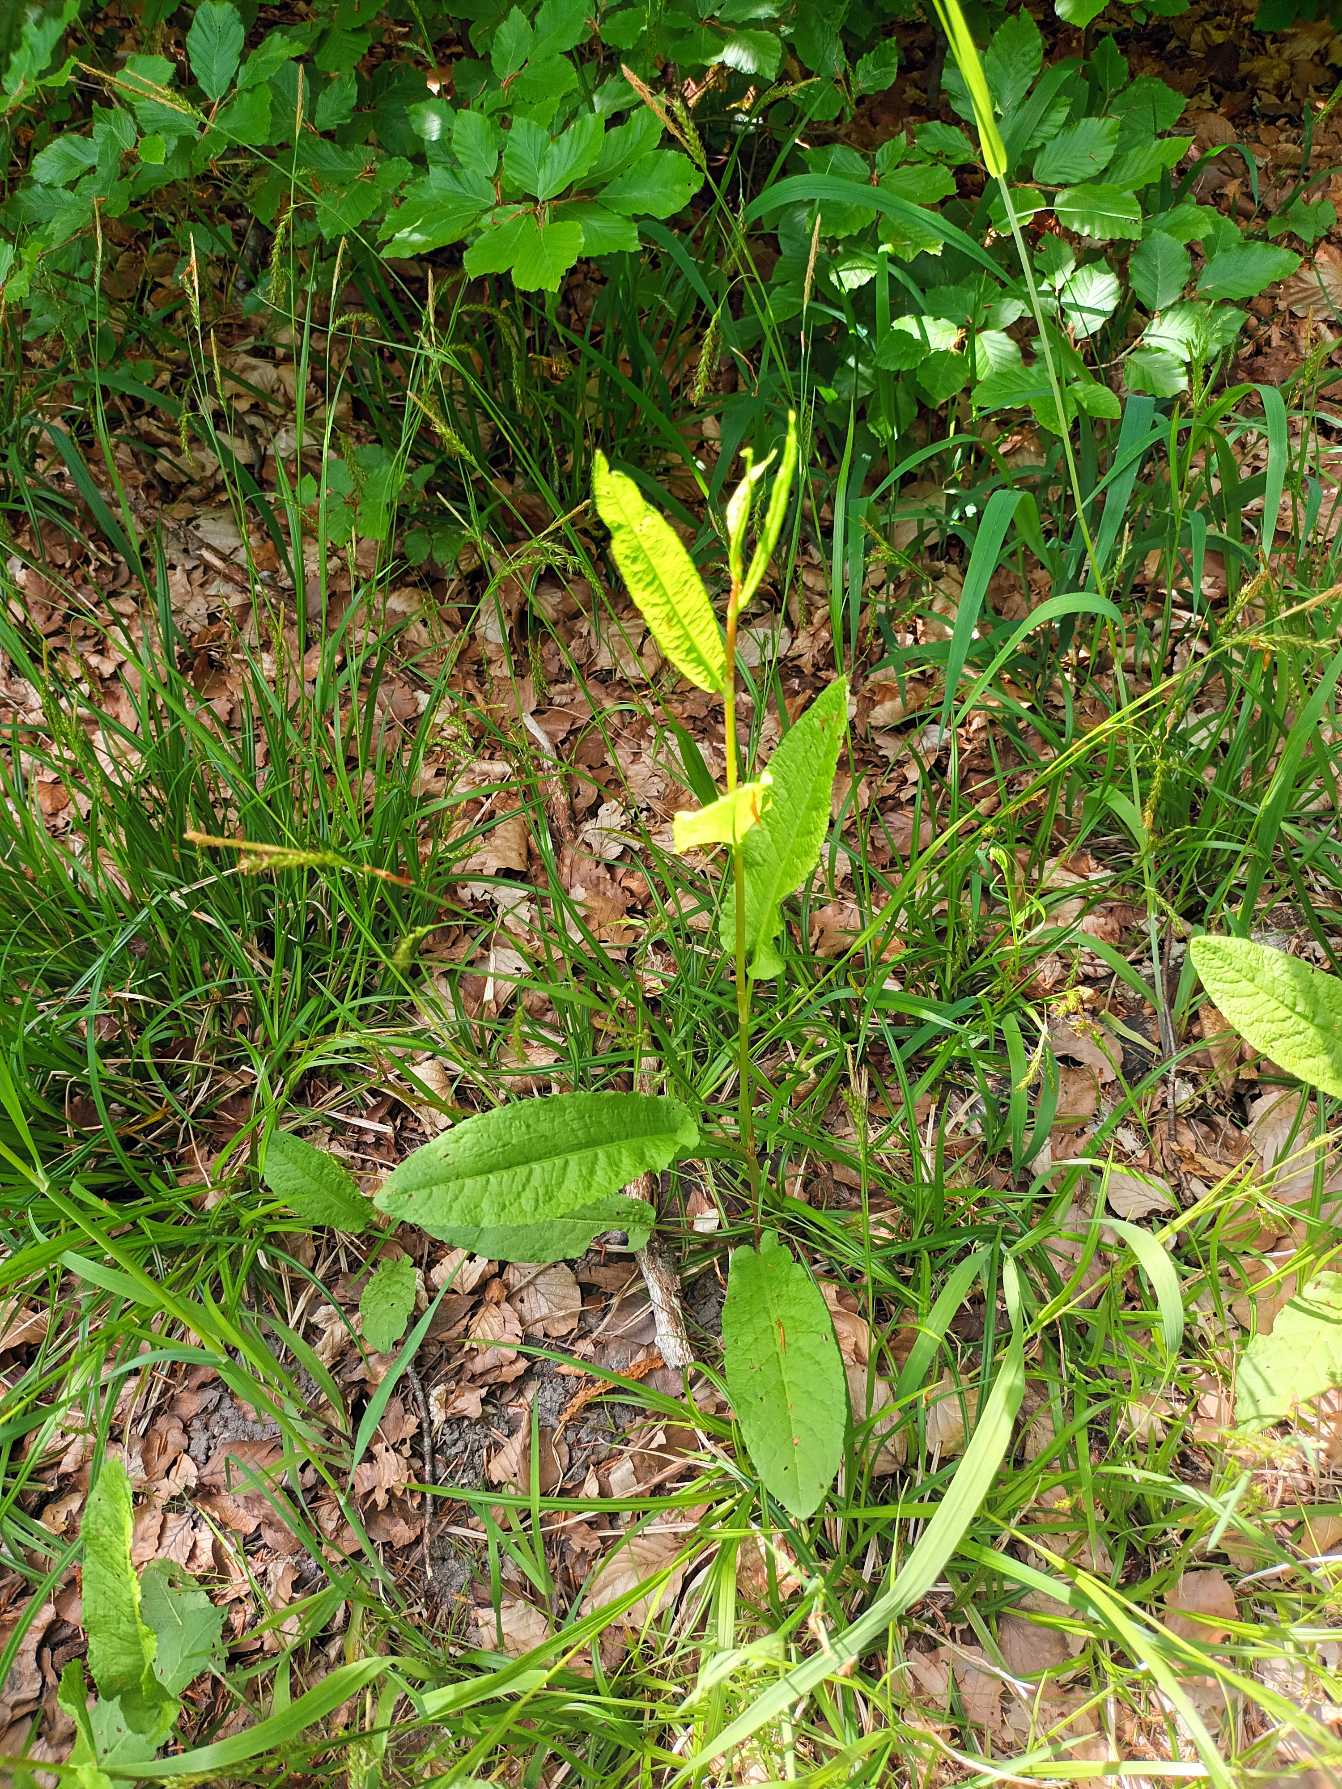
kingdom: Plantae
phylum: Tracheophyta
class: Magnoliopsida
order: Caryophyllales
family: Polygonaceae
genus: Rumex
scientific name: Rumex sanguineus
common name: Skov-skræppe
